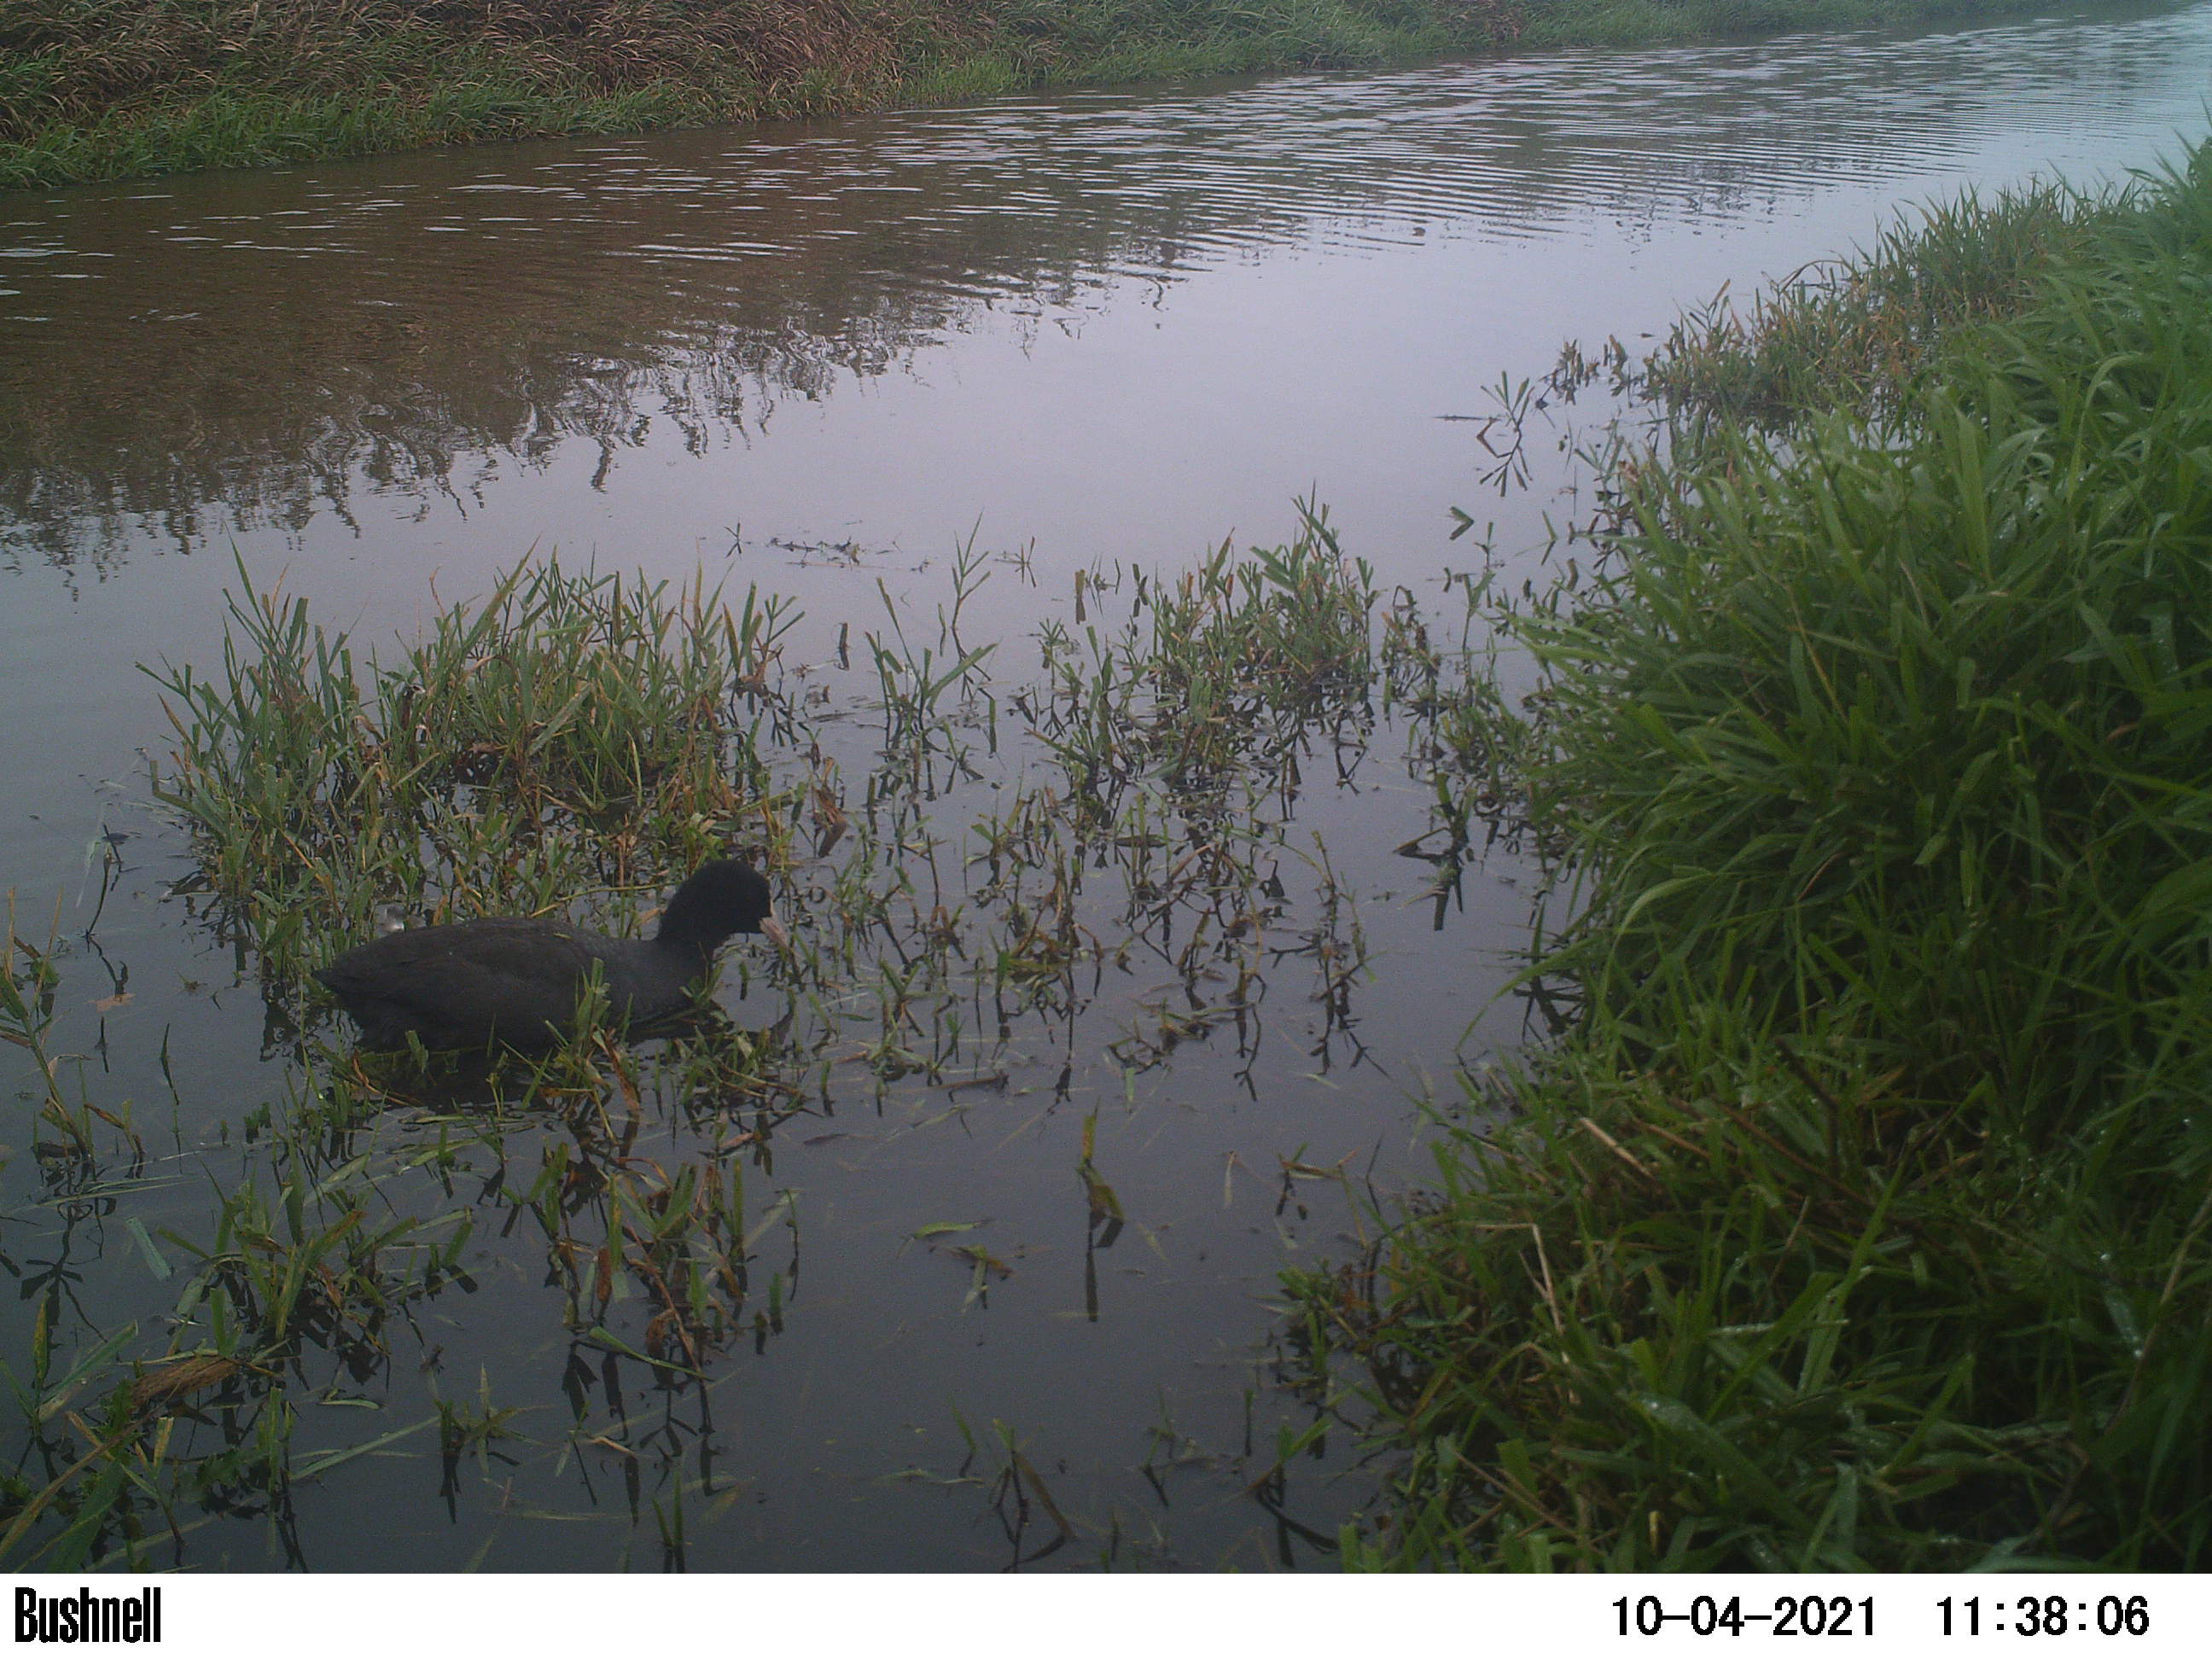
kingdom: Animalia
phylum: Chordata
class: Aves
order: Gruiformes
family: Rallidae
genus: Fulica
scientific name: Fulica atra
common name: Eurasian coot
